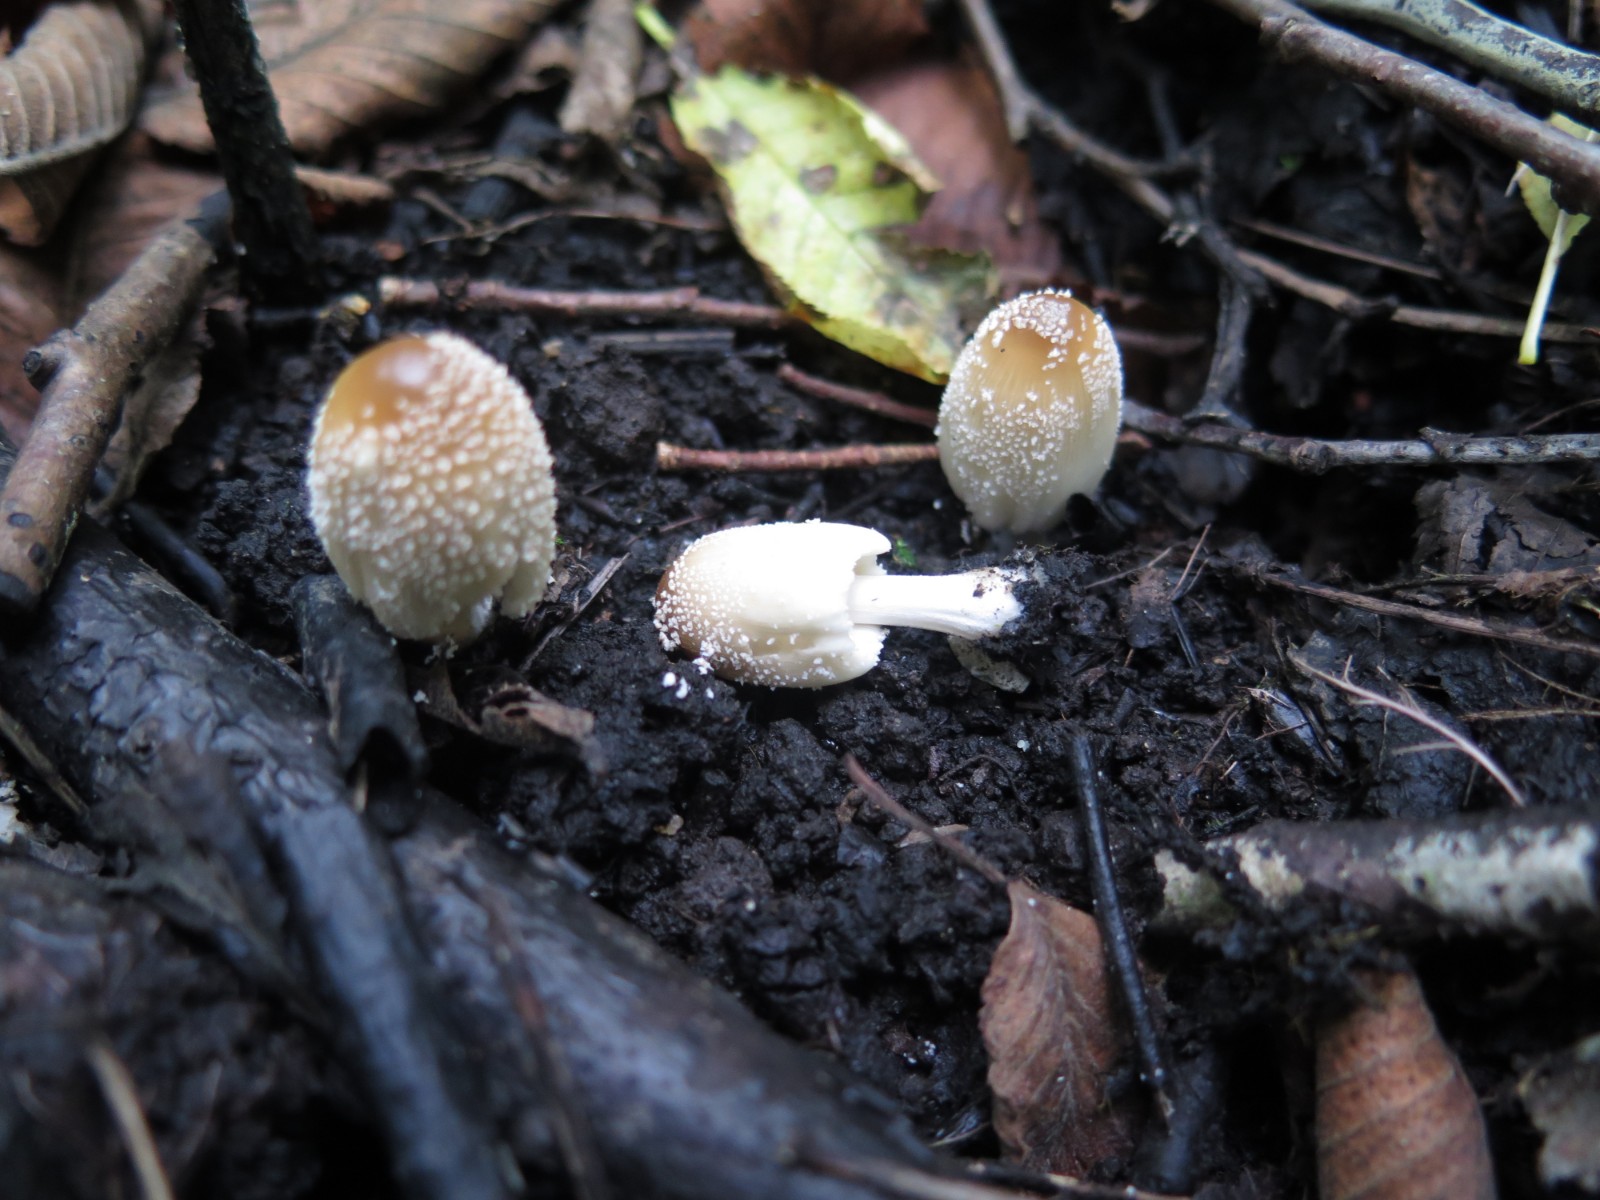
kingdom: Fungi
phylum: Basidiomycota
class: Agaricomycetes
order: Agaricales
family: Psathyrellaceae
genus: Coprinellus
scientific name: Coprinellus radians
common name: grynet blækhat
